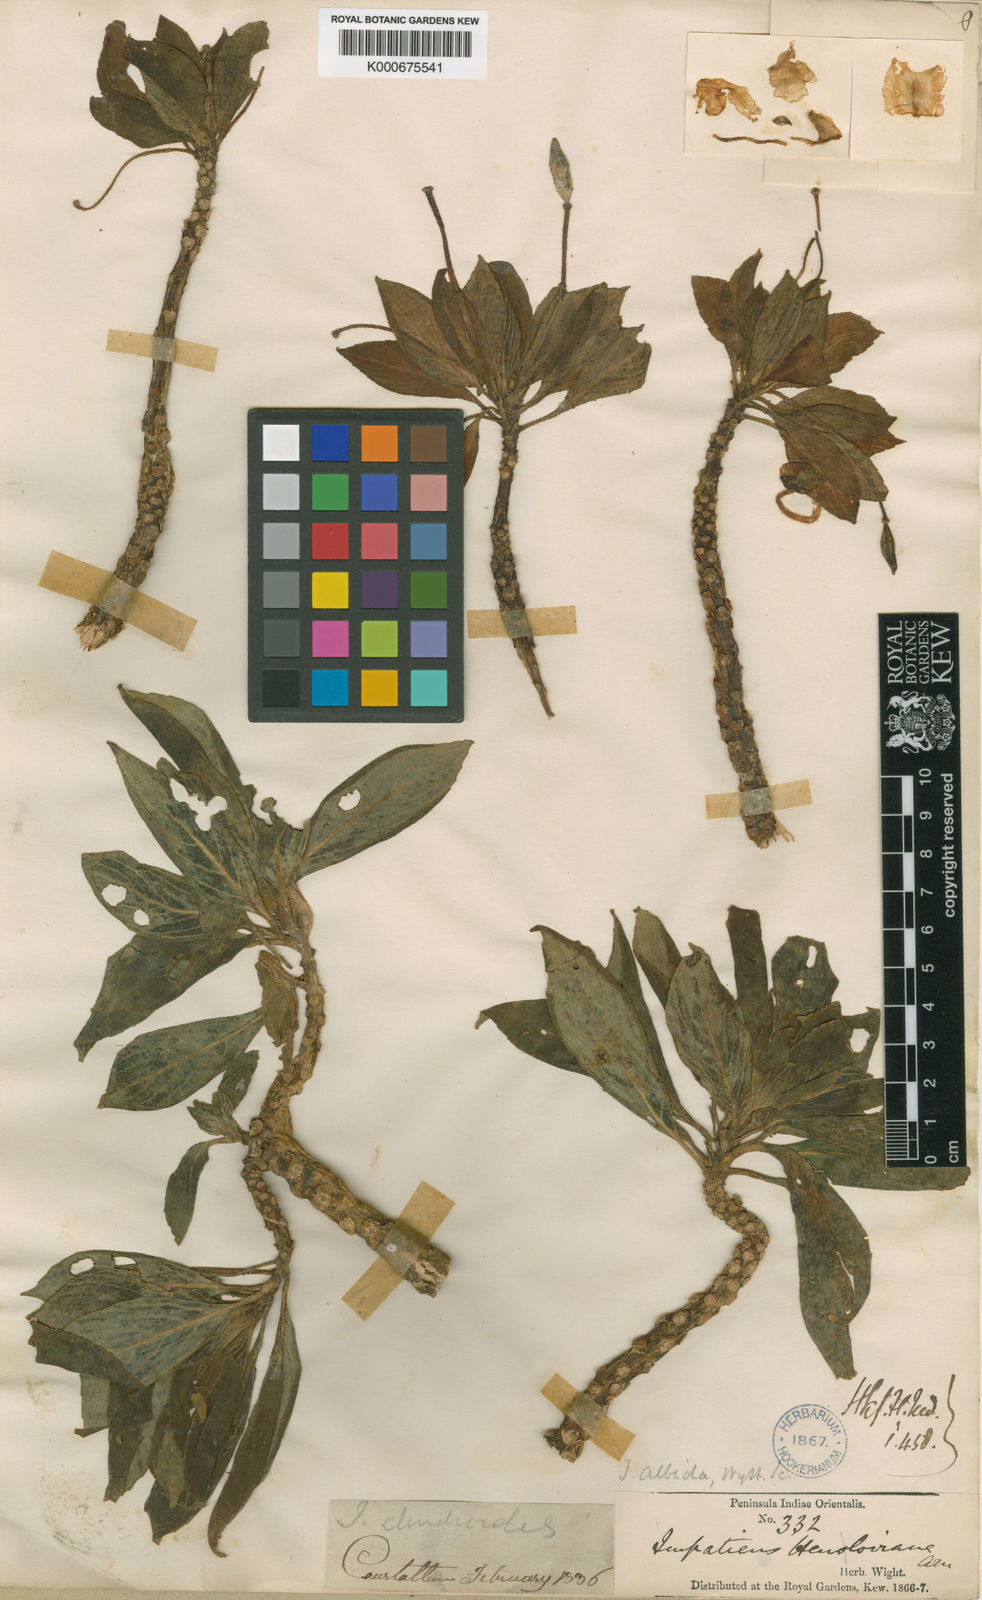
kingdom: Plantae
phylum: Tracheophyta
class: Magnoliopsida
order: Ericales
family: Balsaminaceae
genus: Impatiens
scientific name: Impatiens henslowiana
